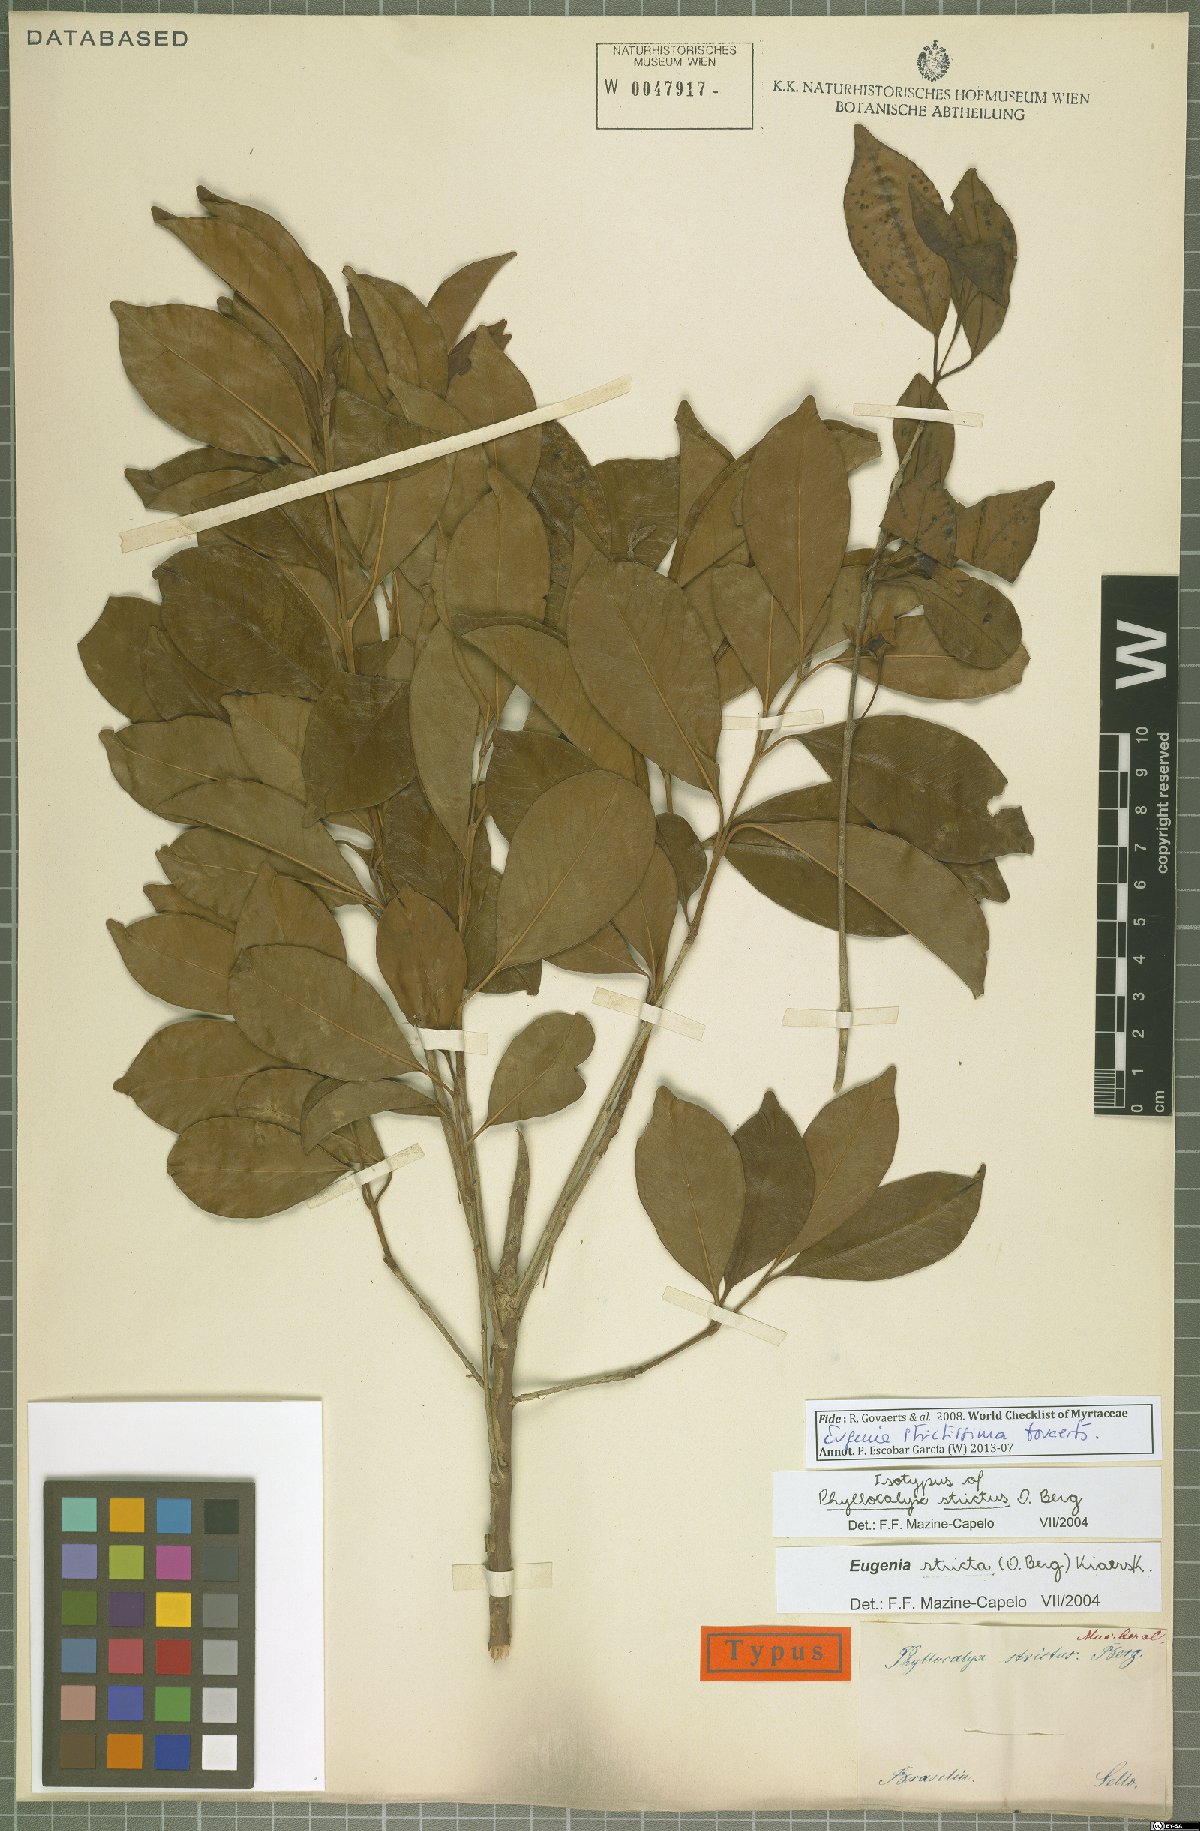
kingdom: Plantae
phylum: Tracheophyta
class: Magnoliopsida
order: Myrtales
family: Myrtaceae
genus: Eugenia
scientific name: Eugenia involucrata
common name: Cherry-of-the-rio grande
